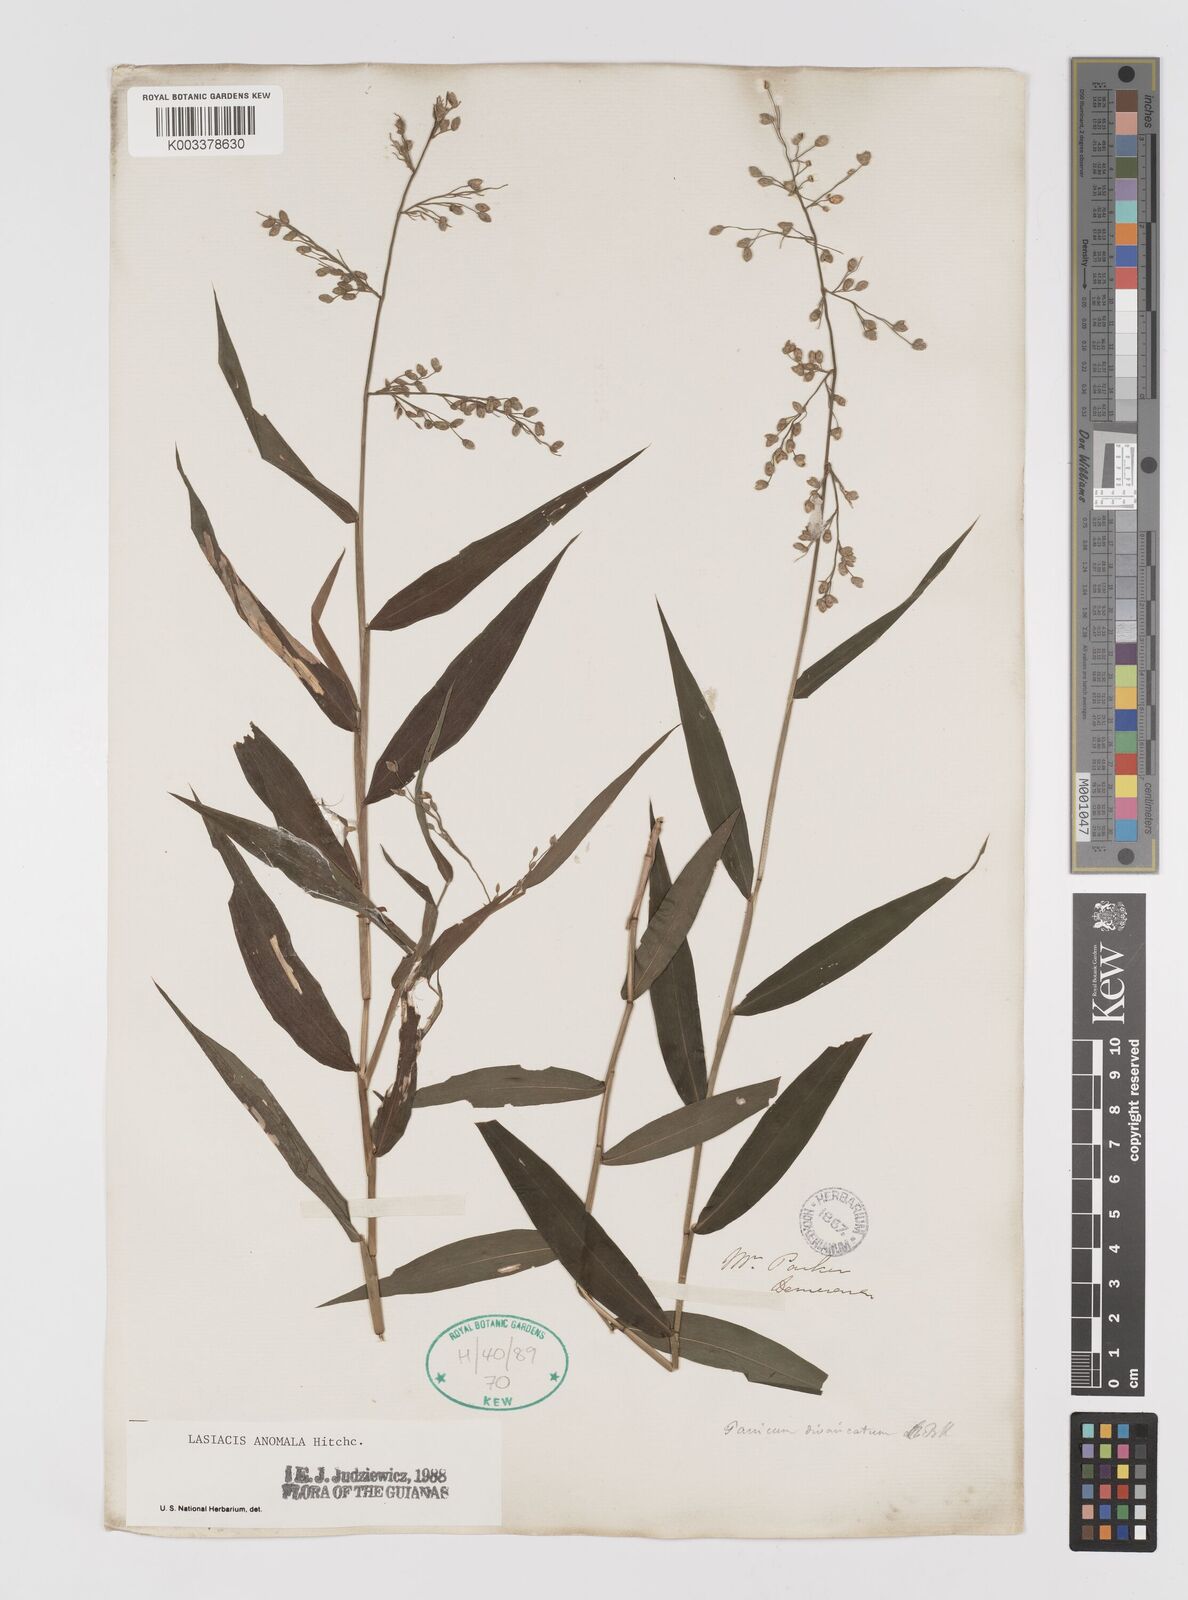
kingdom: Plantae
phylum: Tracheophyta
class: Liliopsida
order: Poales
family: Poaceae
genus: Lasiacis
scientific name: Lasiacis anomala
